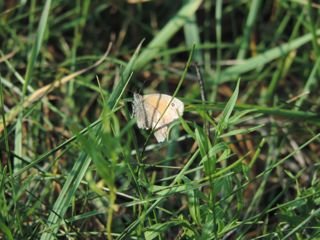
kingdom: Animalia
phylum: Arthropoda
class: Insecta
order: Lepidoptera
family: Nymphalidae
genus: Coenonympha
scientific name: Coenonympha tullia
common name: Large Heath
